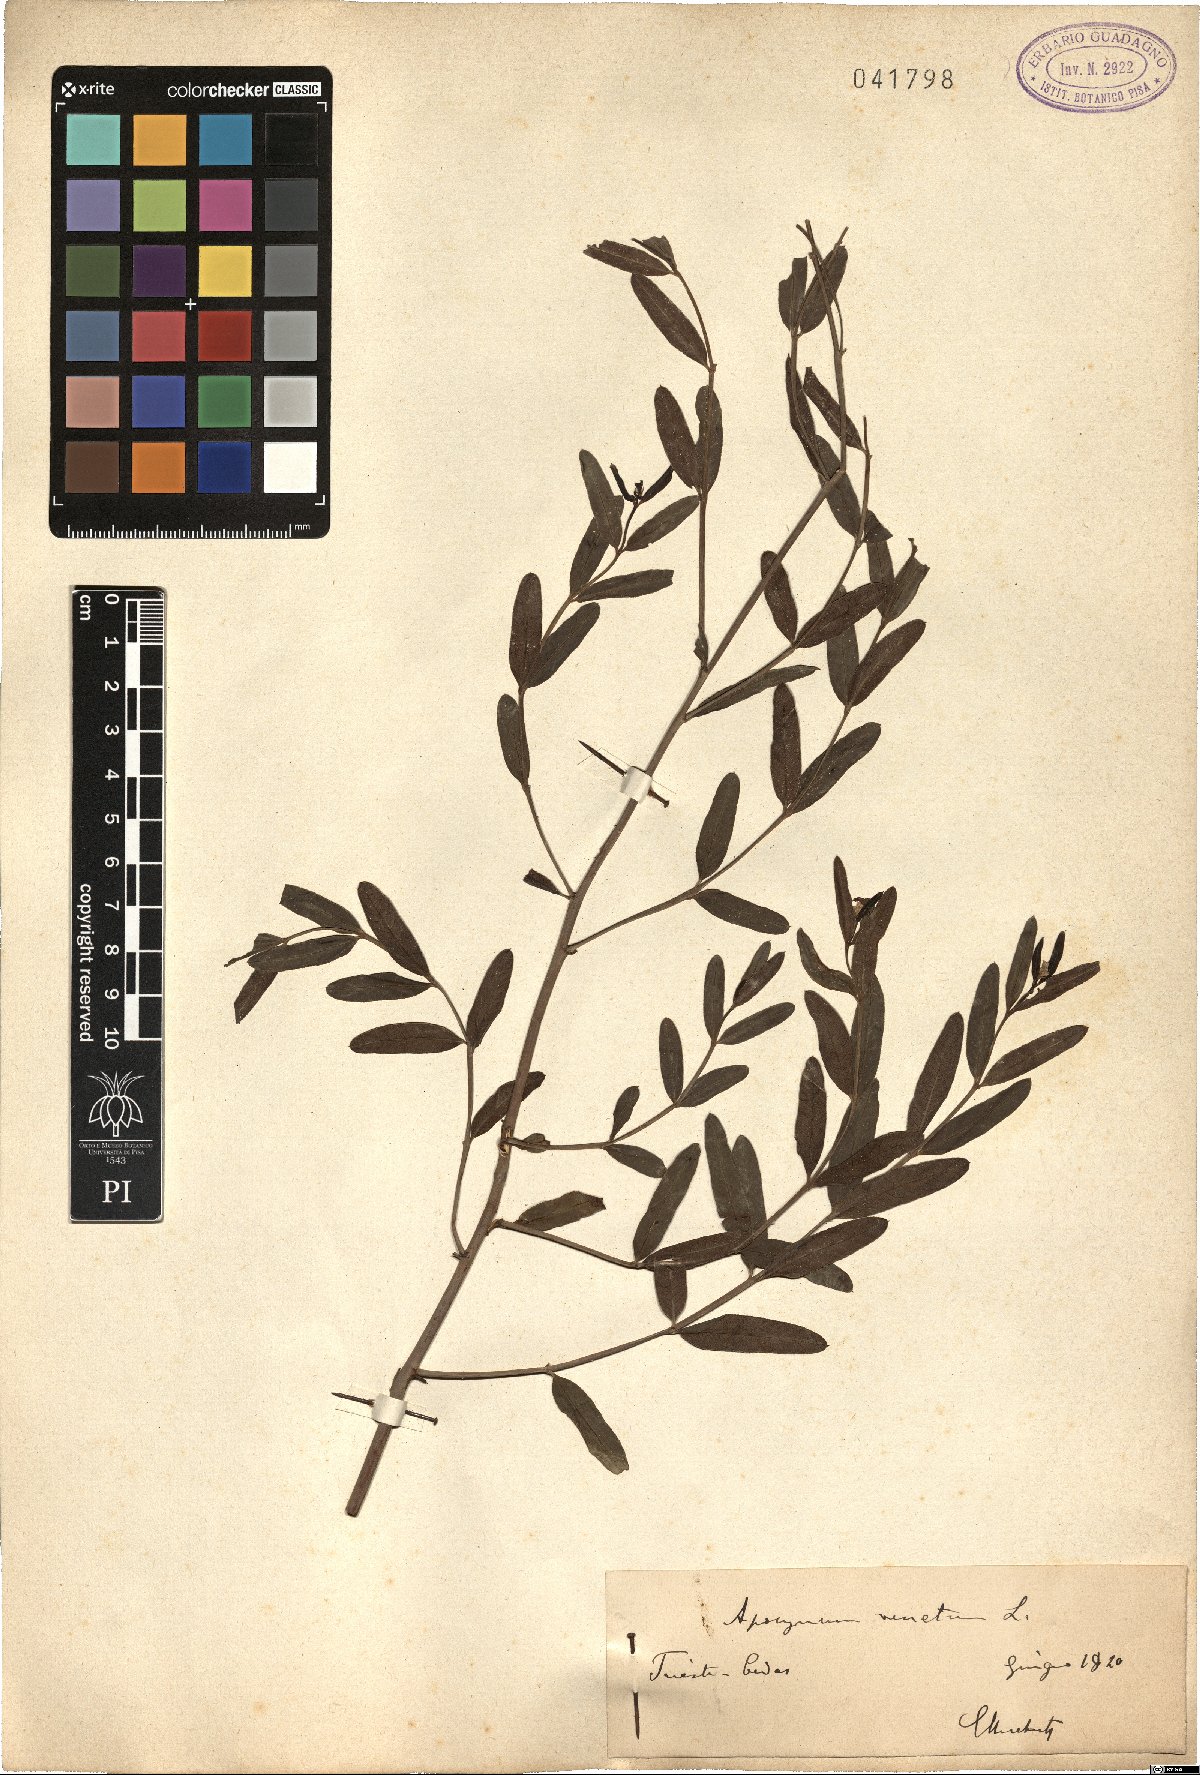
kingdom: Plantae
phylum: Tracheophyta
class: Magnoliopsida
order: Gentianales
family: Apocynaceae
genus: Poacynum
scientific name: Poacynum venetum
